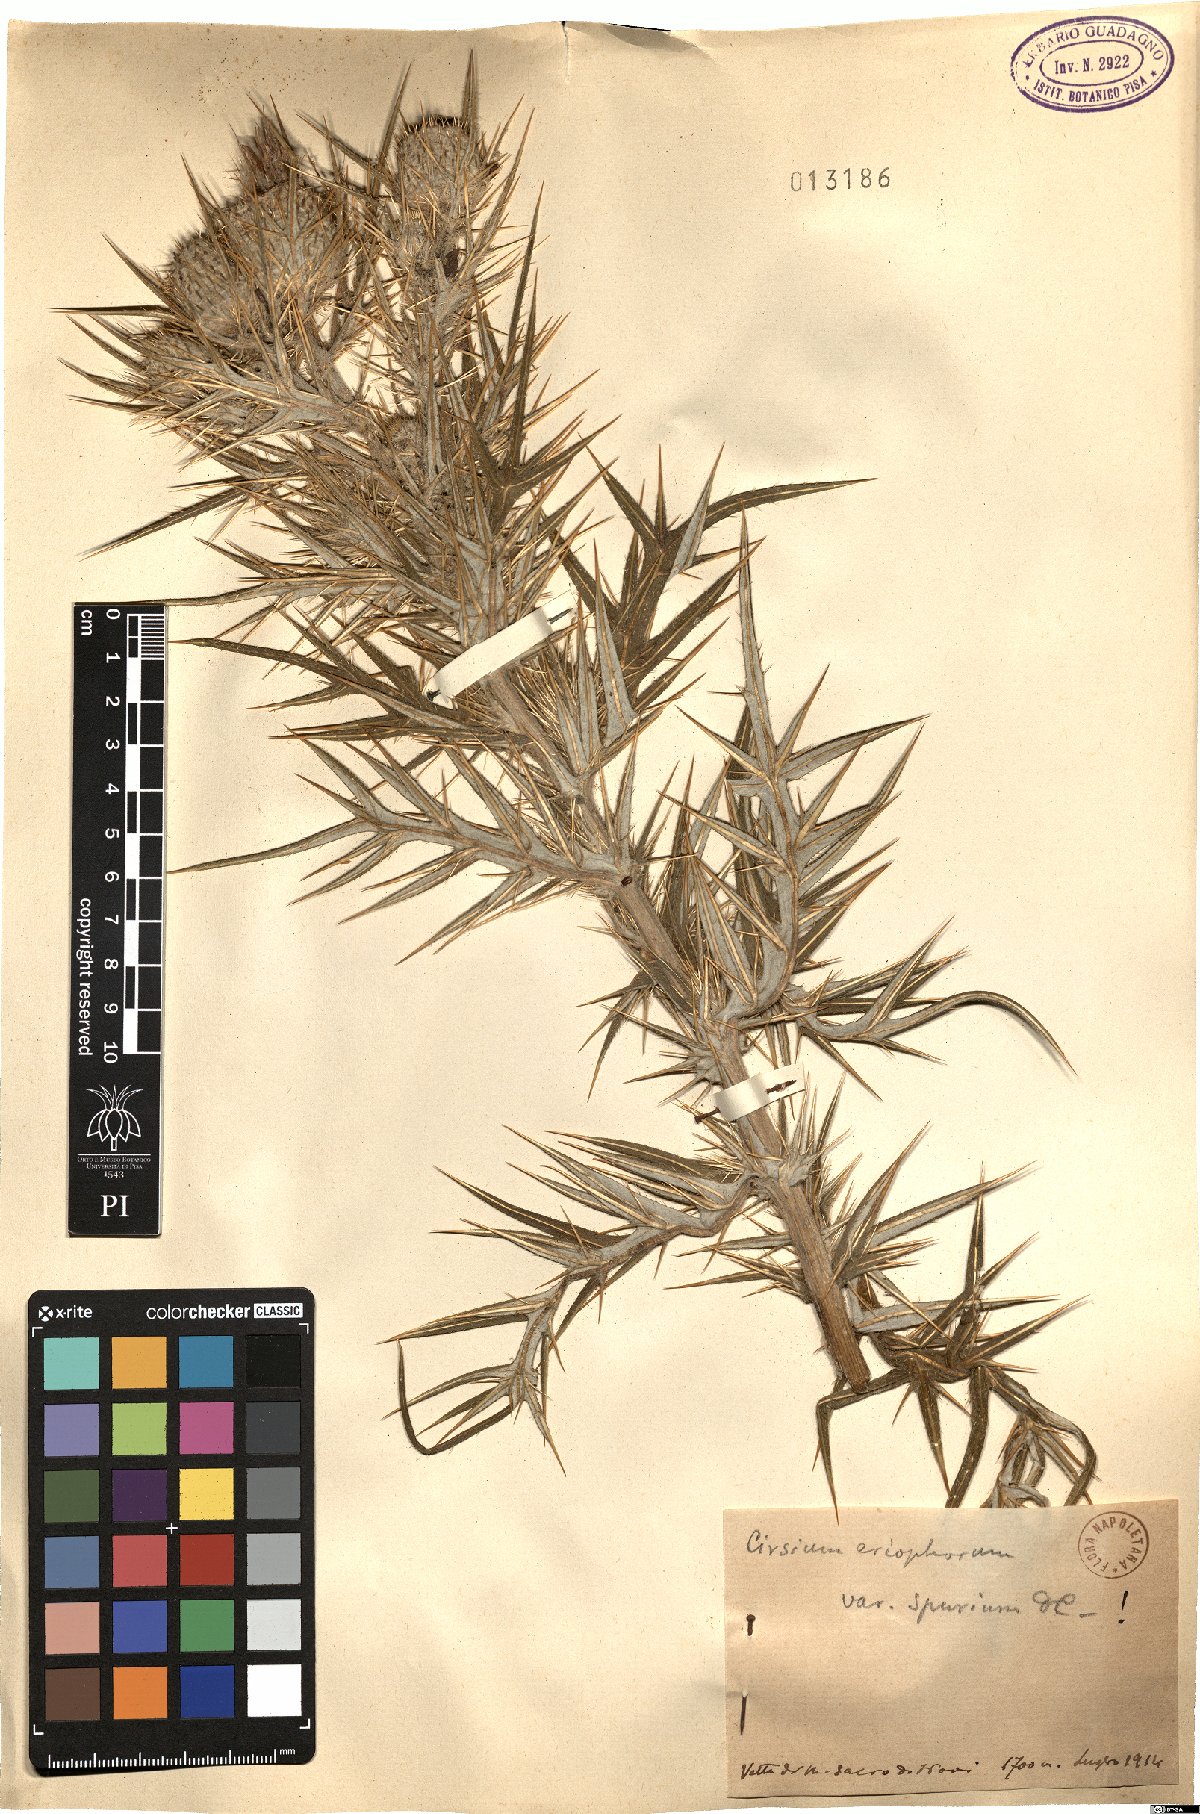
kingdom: Plantae
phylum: Tracheophyta
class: Magnoliopsida
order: Asterales
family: Asteraceae
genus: Lophiolepis
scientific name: Lophiolepis tenoreana
